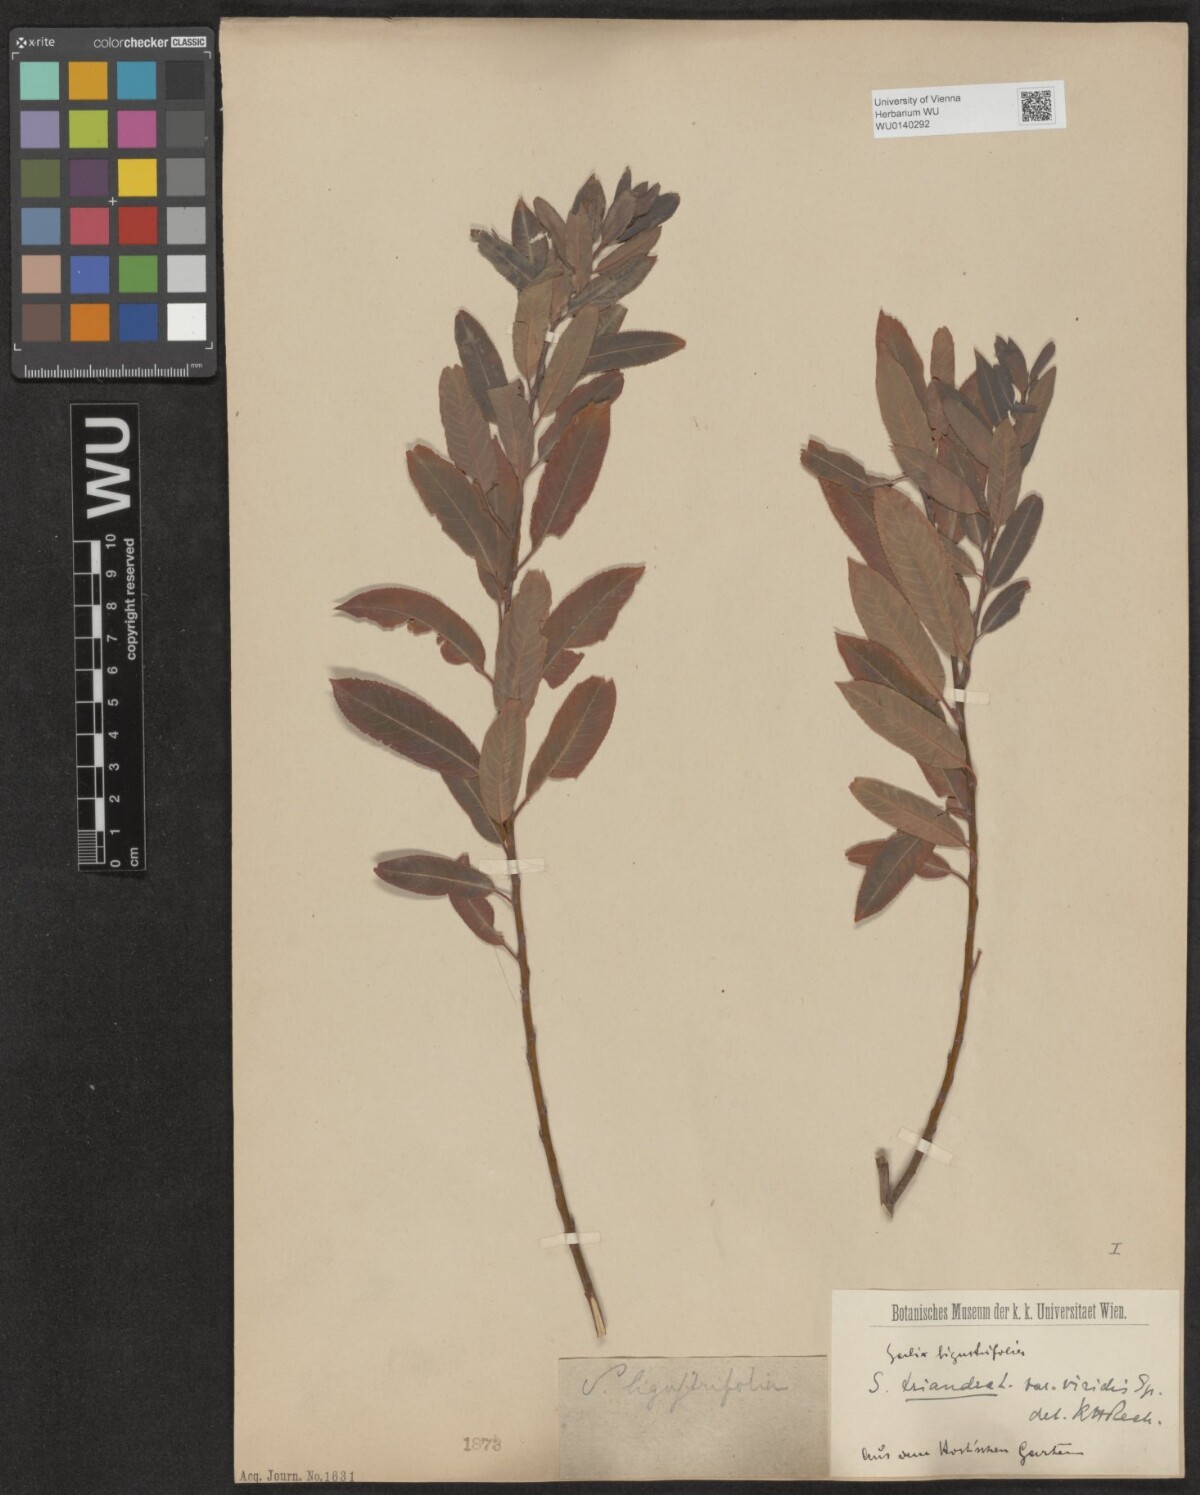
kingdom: Plantae
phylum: Tracheophyta
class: Magnoliopsida
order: Malpighiales
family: Salicaceae
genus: Salix
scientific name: Salix triandra
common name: Almond willow
